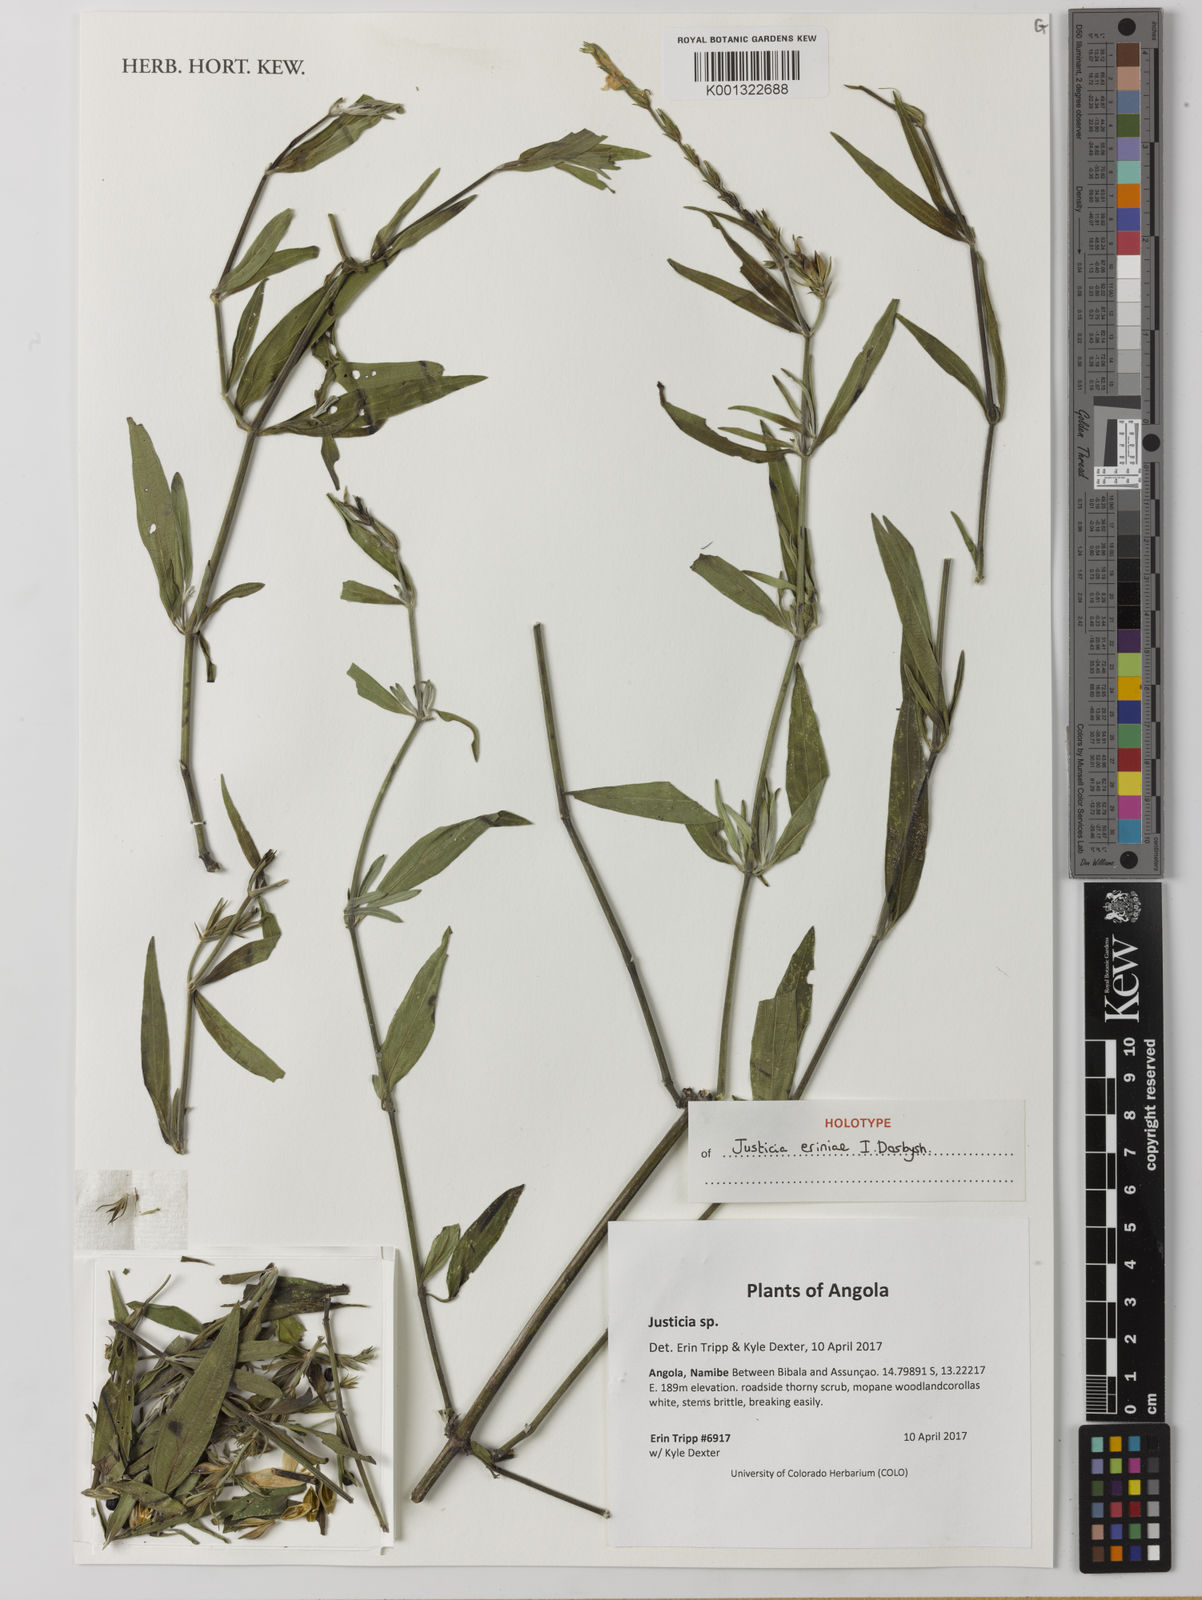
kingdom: Plantae
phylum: Tracheophyta
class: Magnoliopsida
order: Lamiales
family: Acanthaceae
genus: Justicia
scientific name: Justicia
